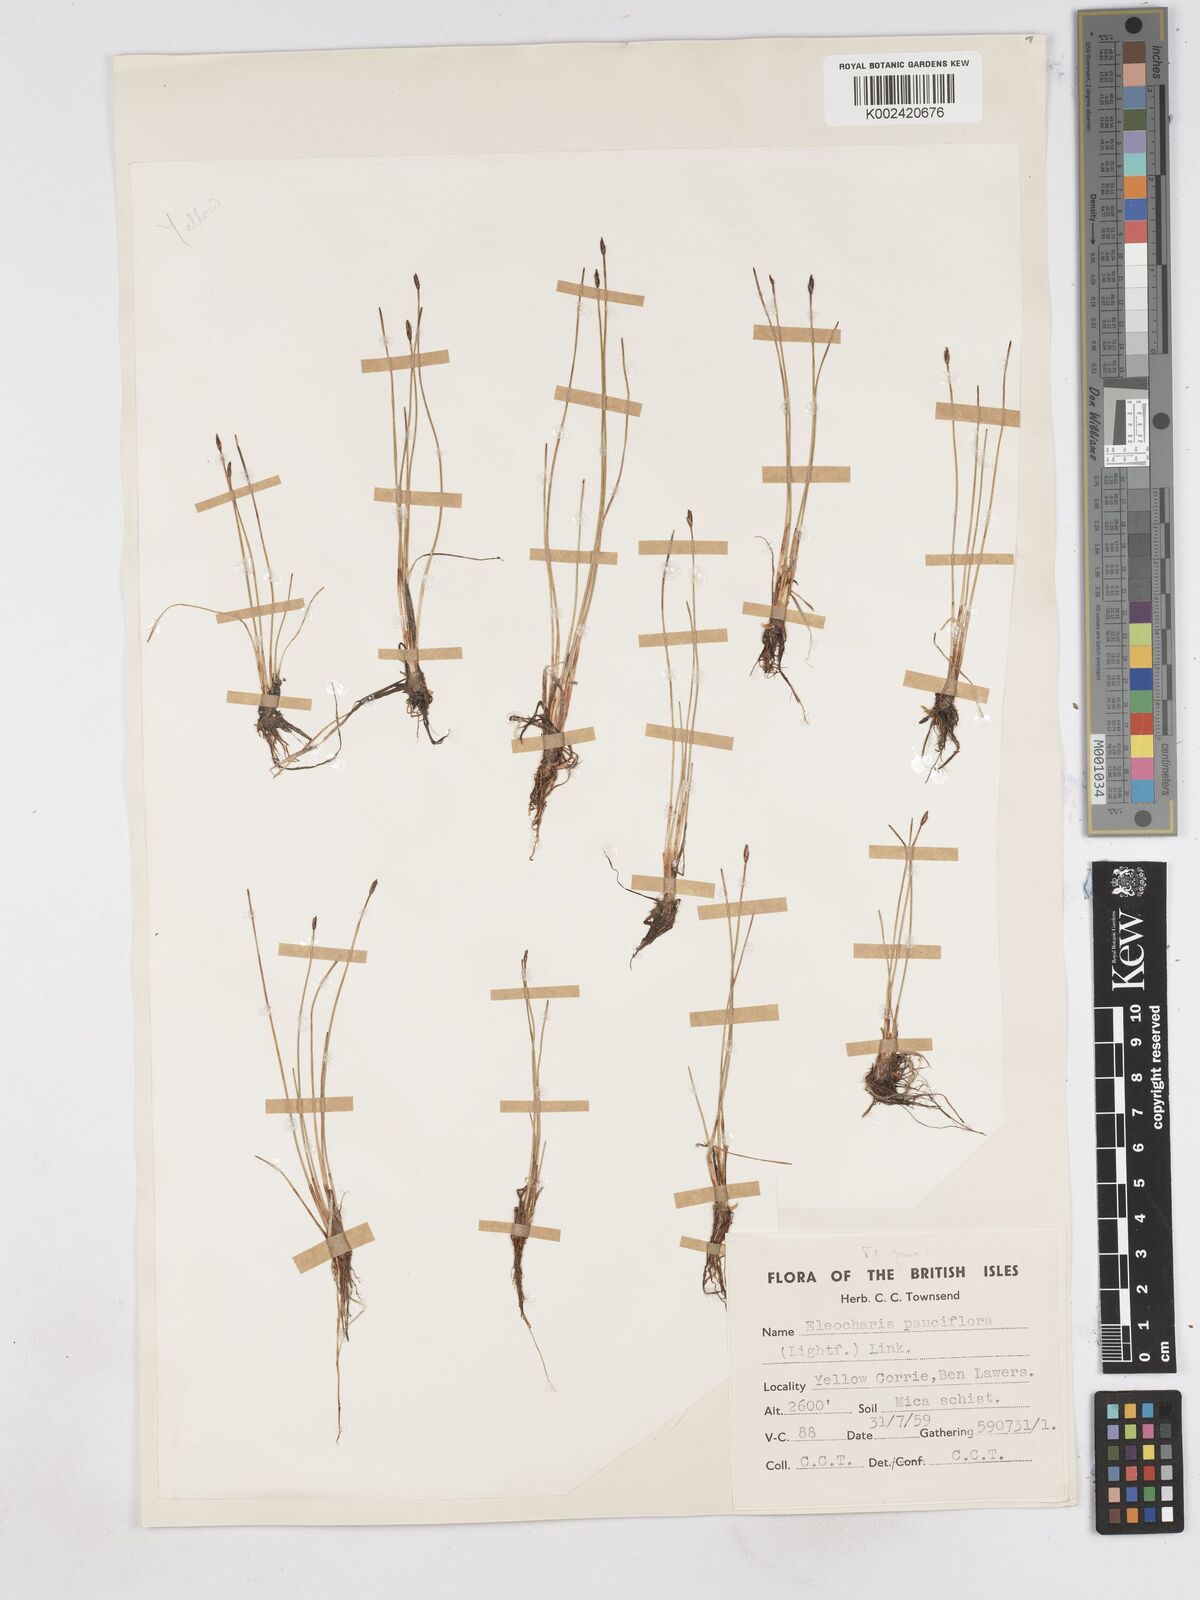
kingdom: Plantae
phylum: Tracheophyta
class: Liliopsida
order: Poales
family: Cyperaceae
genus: Eleocharis
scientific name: Eleocharis quinqueflora
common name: Few-flowered spike-rush
